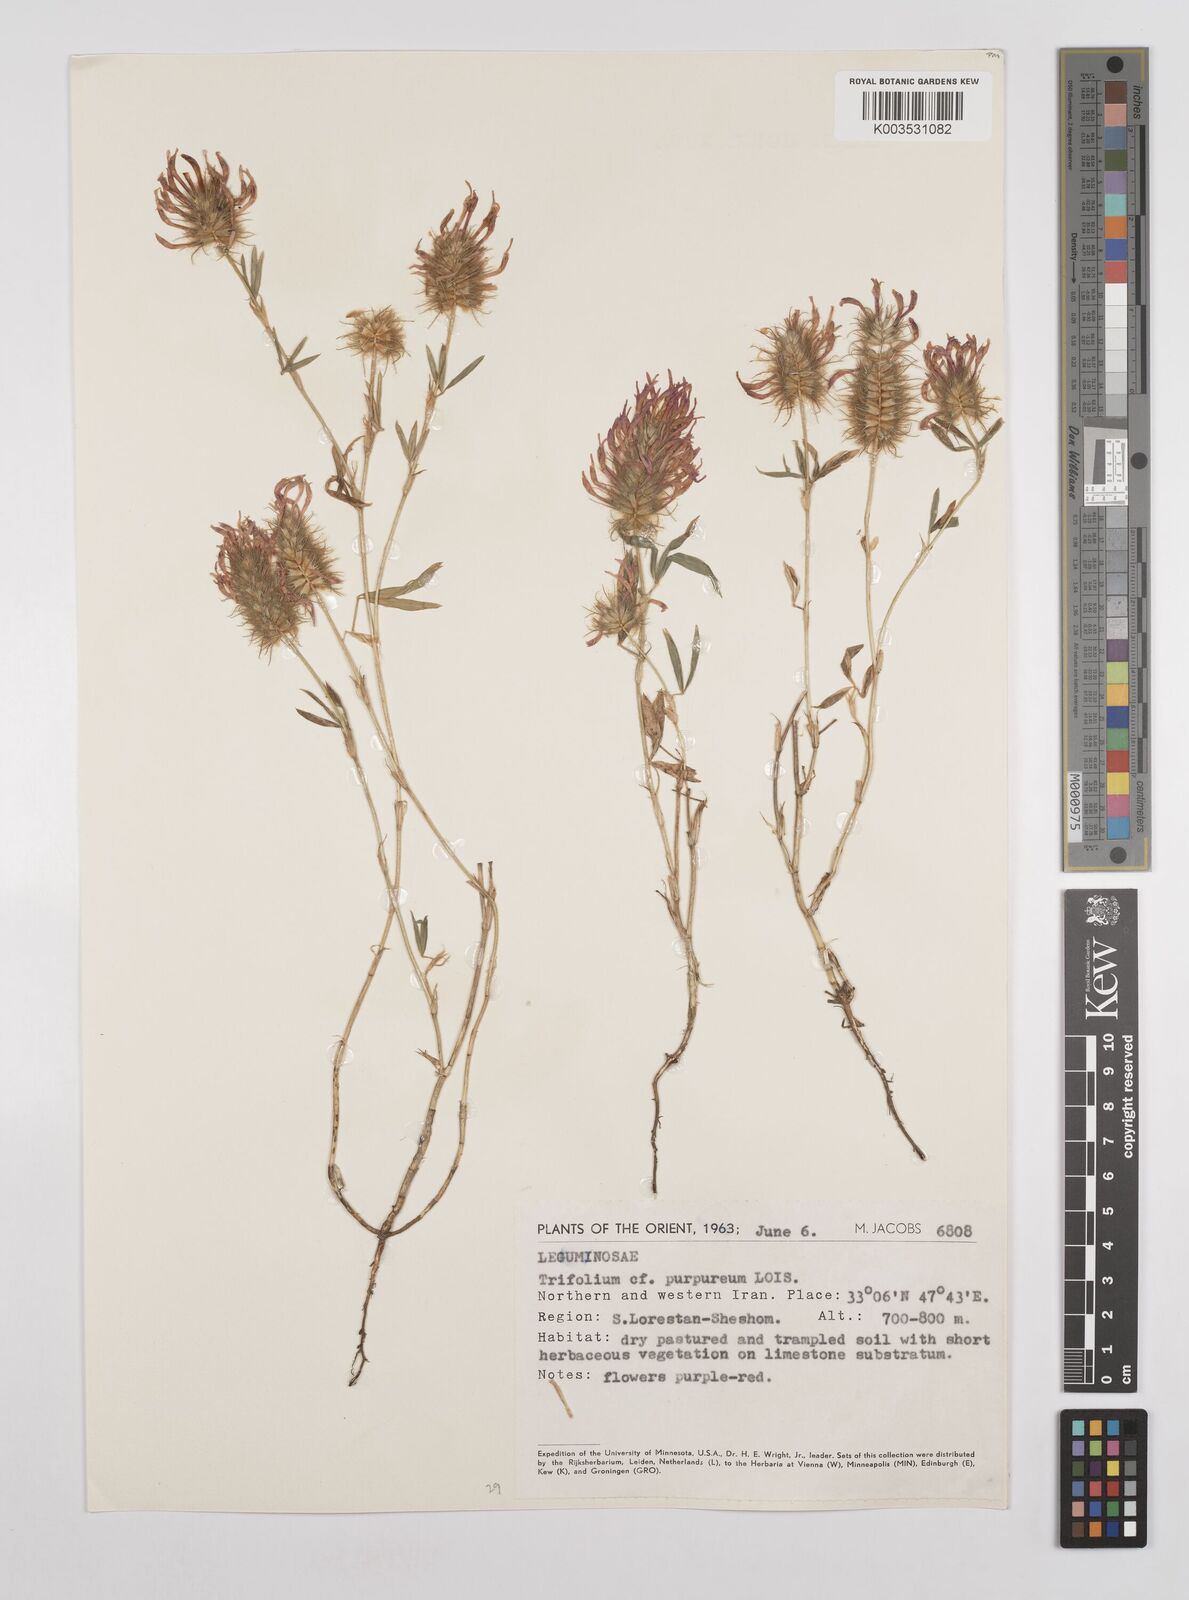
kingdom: Plantae
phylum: Tracheophyta
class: Magnoliopsida
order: Fabales
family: Fabaceae
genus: Trifolium
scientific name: Trifolium purpureum
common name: Purple clover
